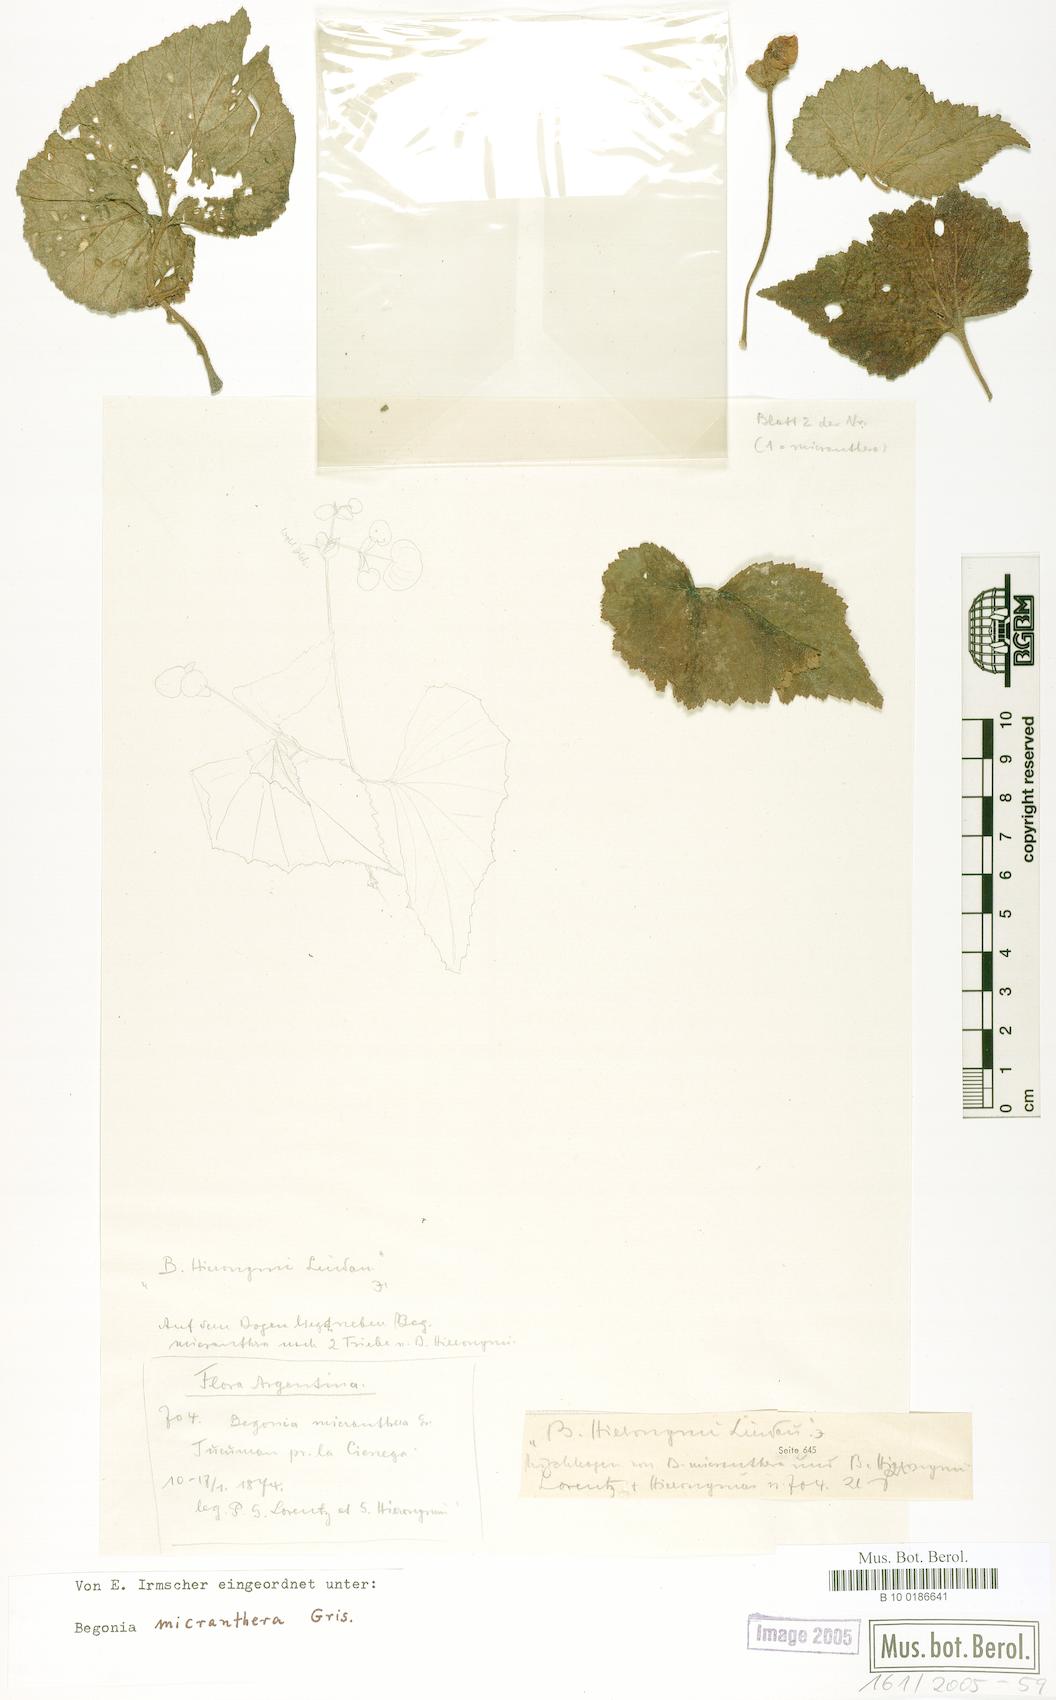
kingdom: Plantae
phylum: Tracheophyta
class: Magnoliopsida
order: Cucurbitales
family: Begoniaceae
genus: Begonia
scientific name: Begonia micranthera
